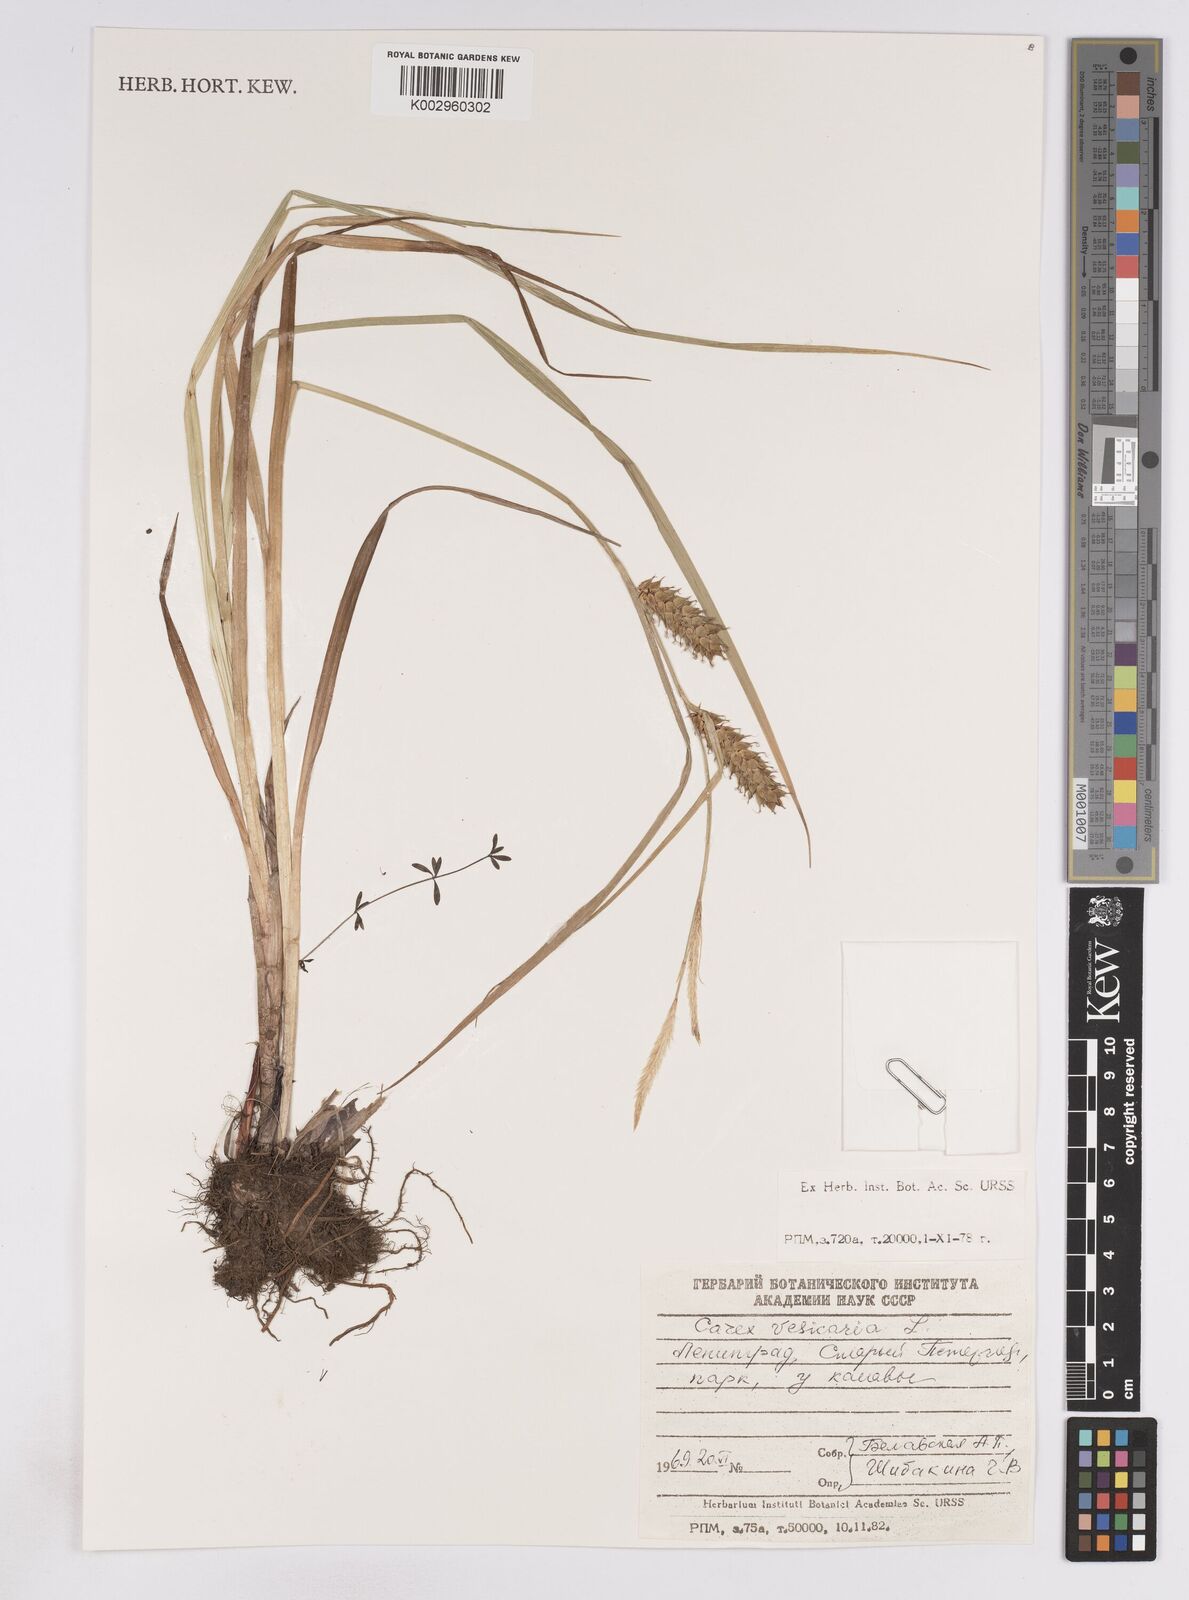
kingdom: Plantae
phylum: Tracheophyta
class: Liliopsida
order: Poales
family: Cyperaceae
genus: Carex
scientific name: Carex vesicaria
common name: Bladder-sedge
